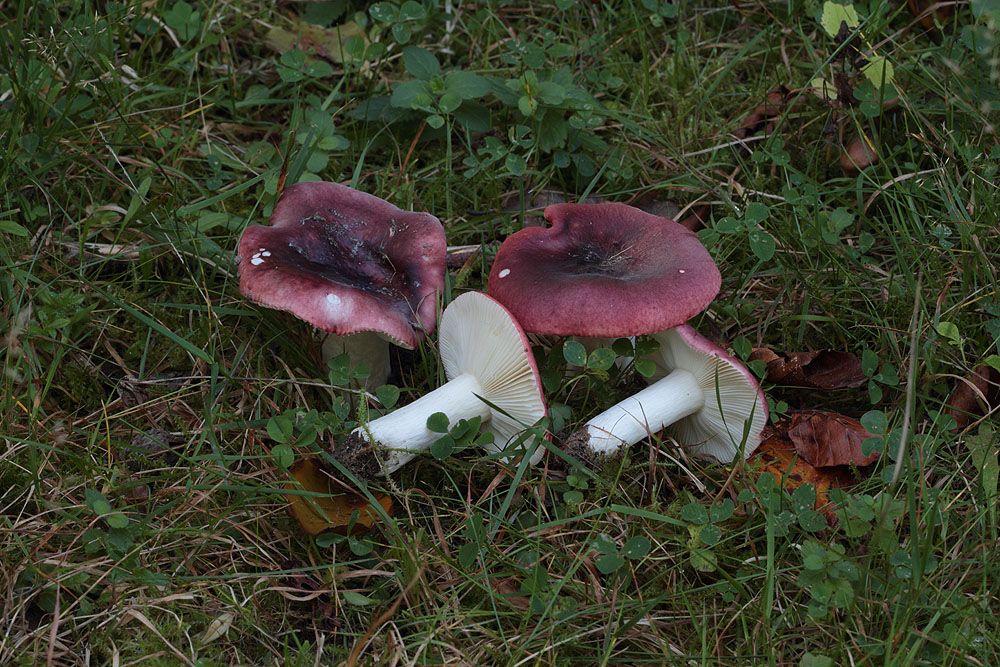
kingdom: Fungi
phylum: Basidiomycota
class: Agaricomycetes
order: Russulales
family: Russulaceae
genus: Russula
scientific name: Russula atropurpurea
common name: purpurbroget skørhat
